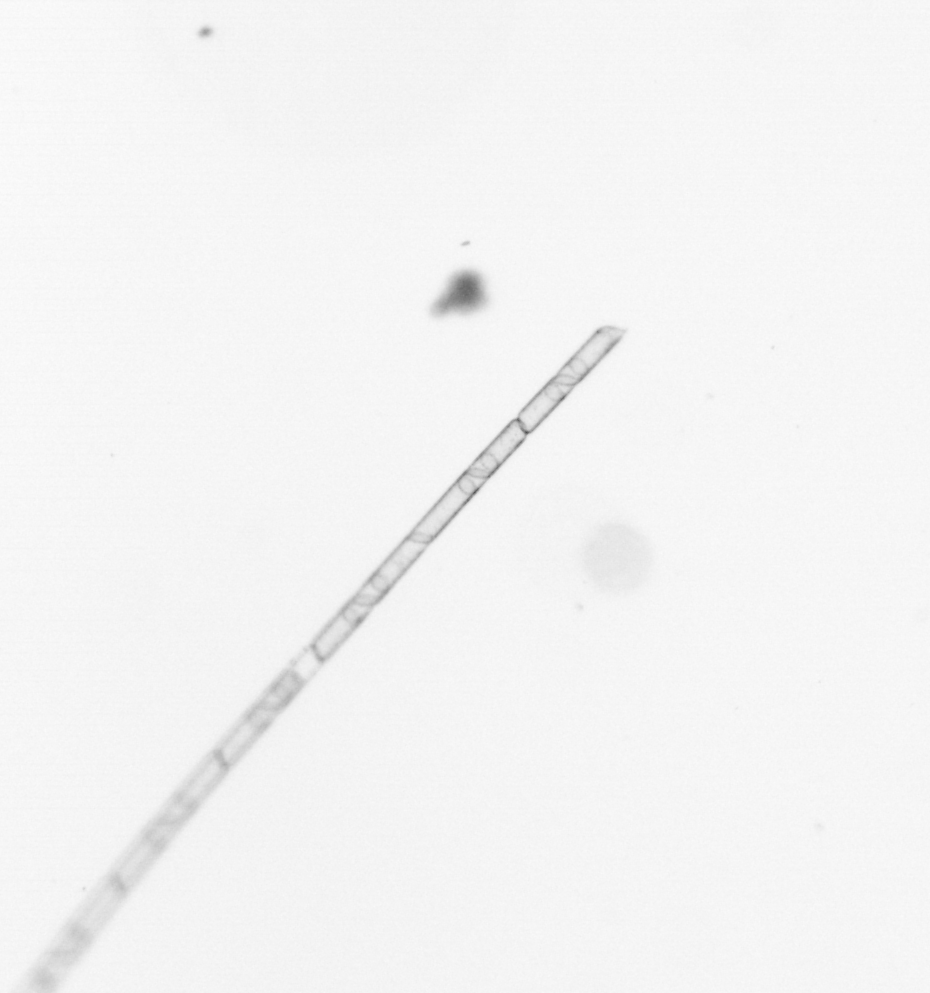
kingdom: Chromista
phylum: Ochrophyta
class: Bacillariophyceae
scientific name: Bacillariophyceae
